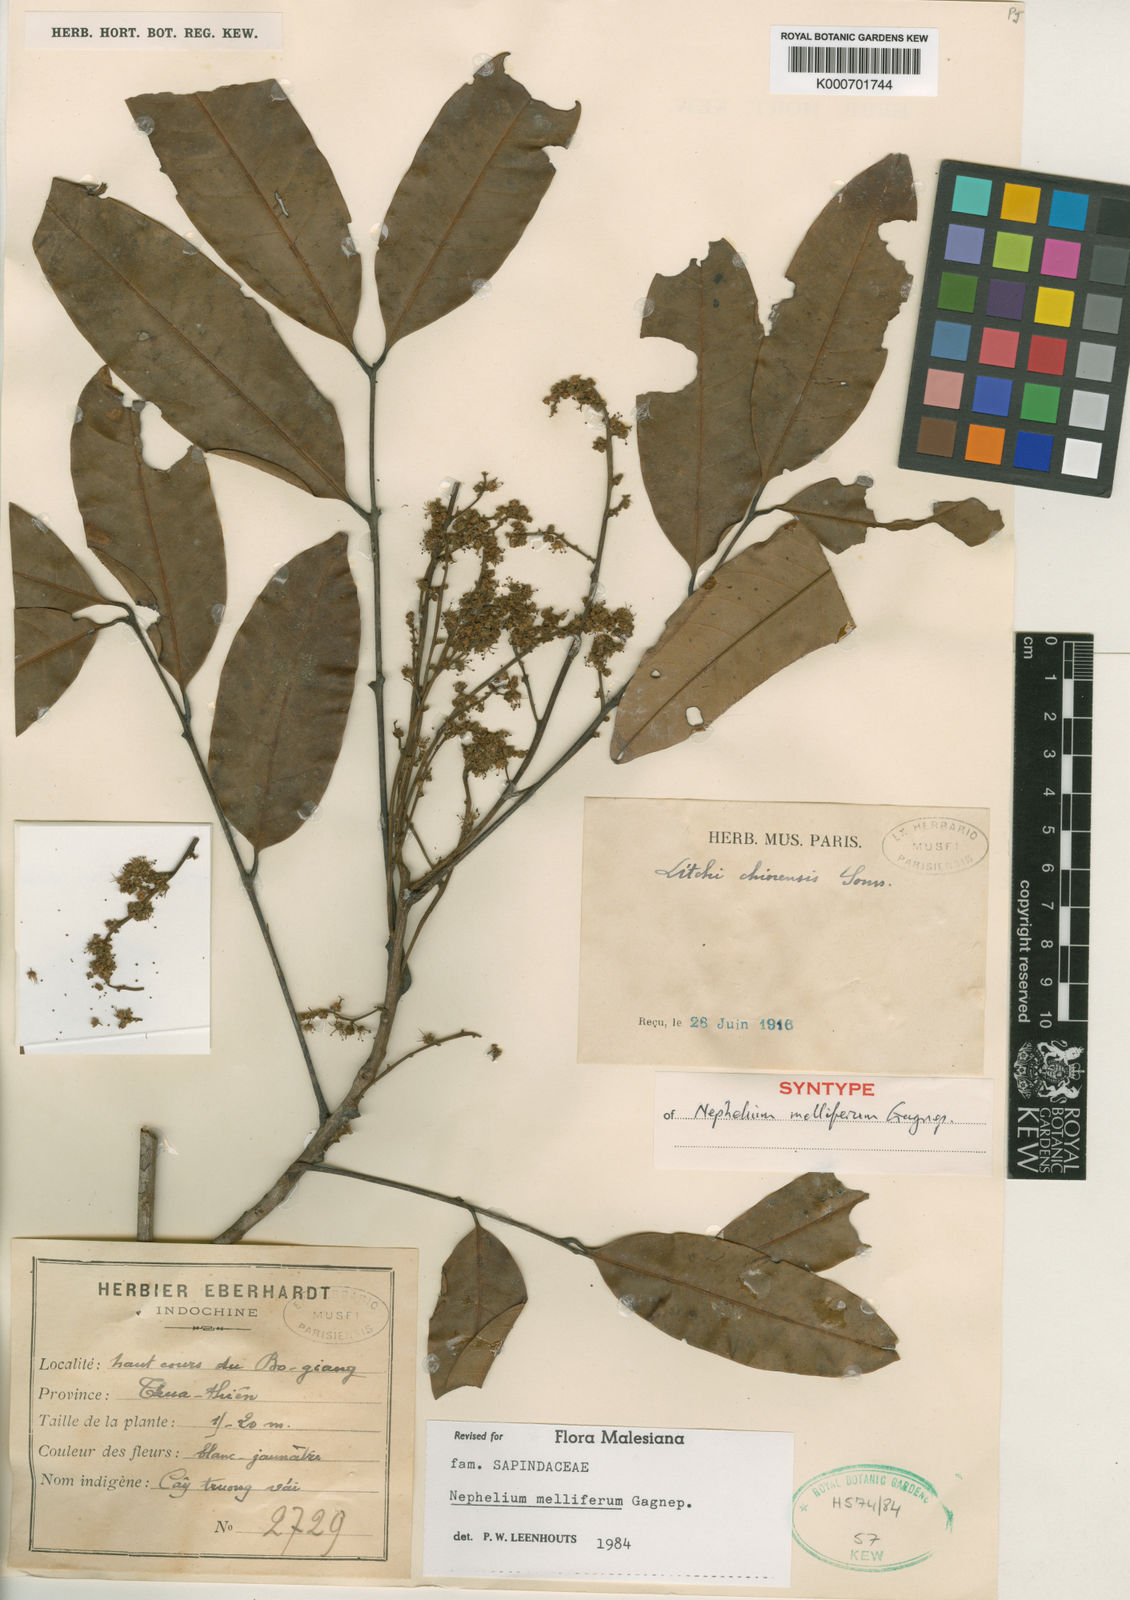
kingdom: Plantae
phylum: Tracheophyta
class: Magnoliopsida
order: Sapindales
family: Sapindaceae
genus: Nephelium
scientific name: Nephelium melliferum
